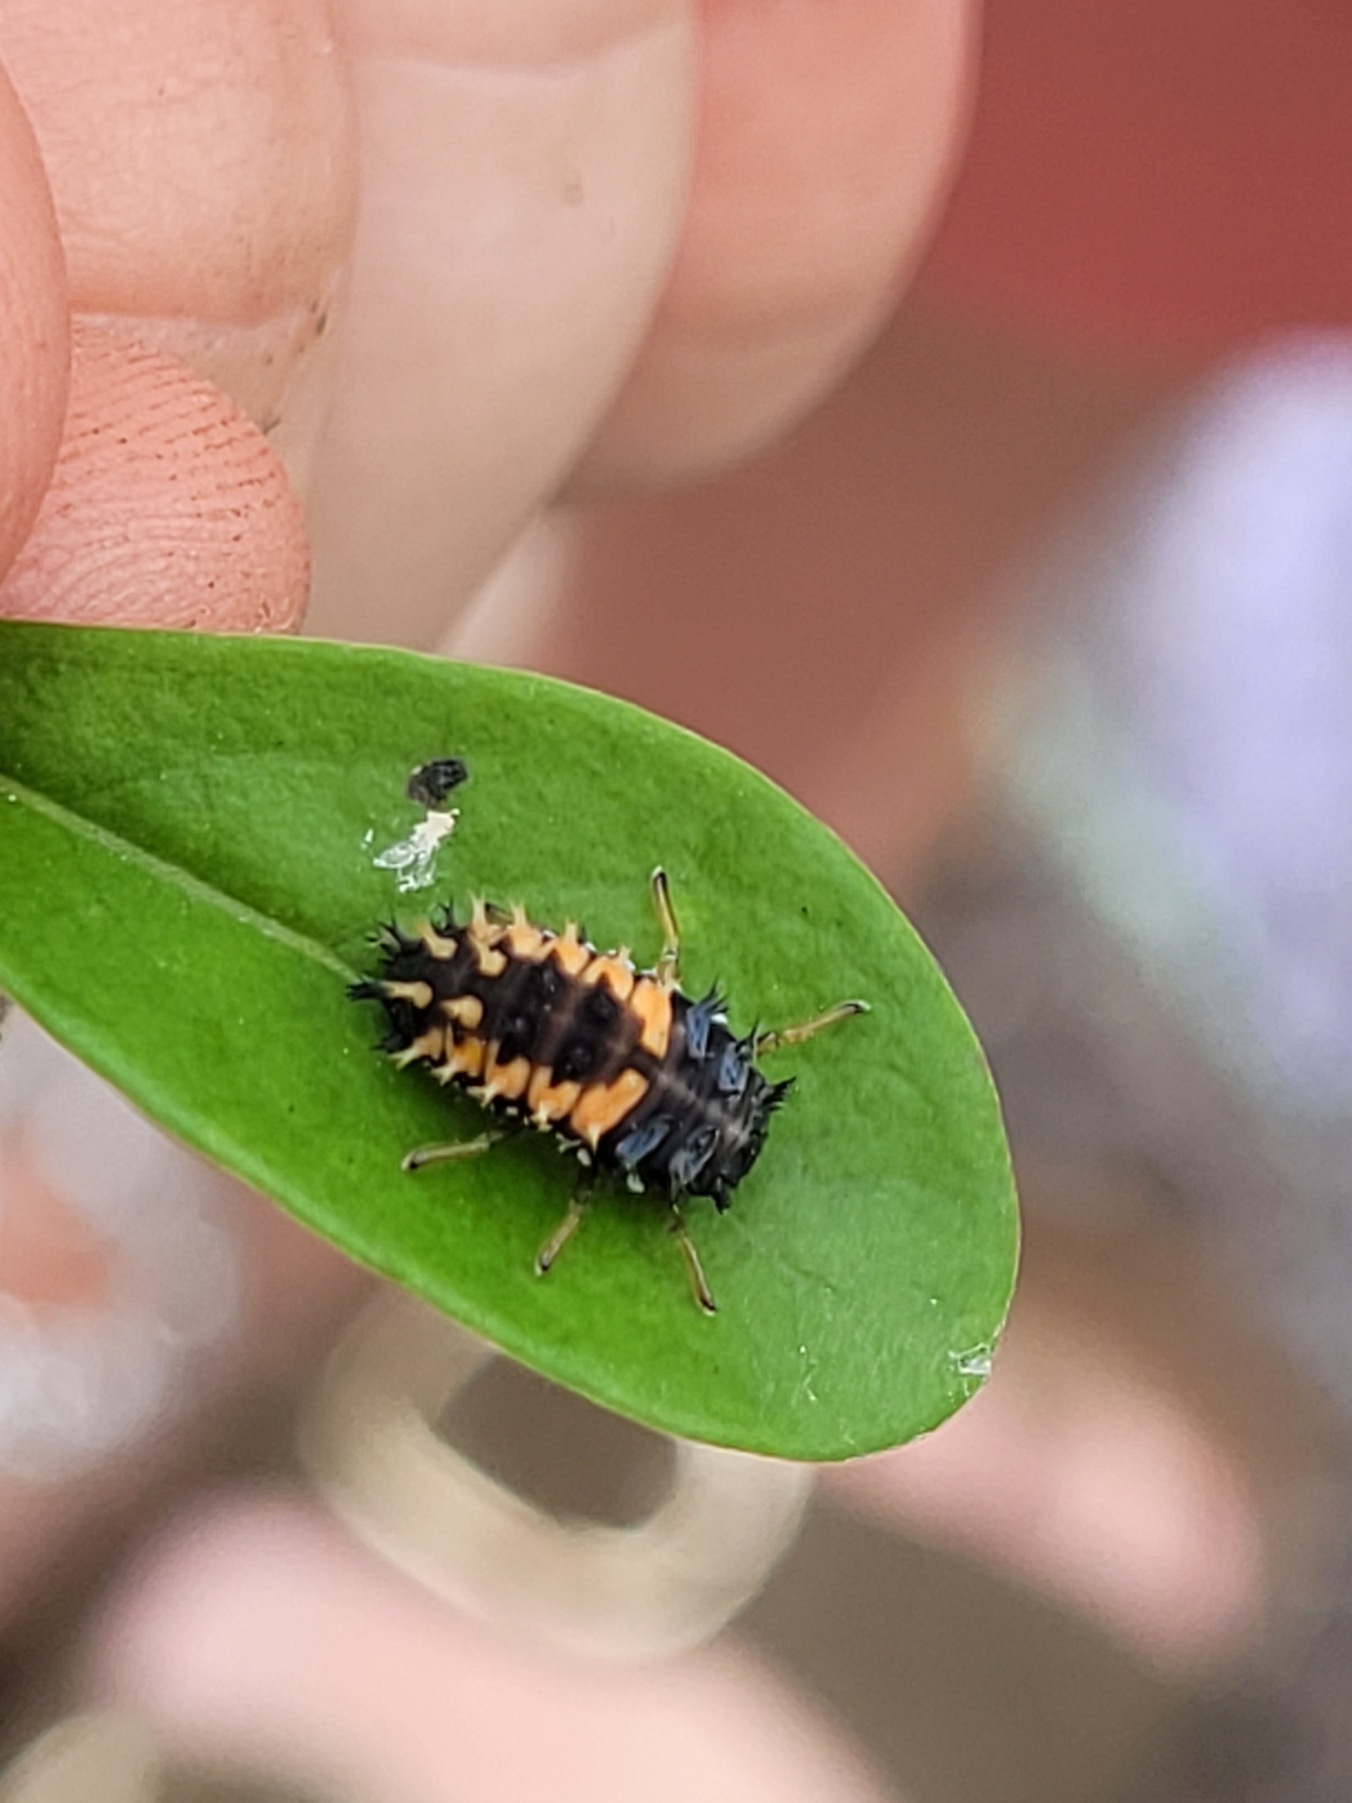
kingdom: Animalia
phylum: Arthropoda
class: Insecta
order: Coleoptera
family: Coccinellidae
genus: Harmonia
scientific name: Harmonia axyridis
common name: Harlekinmariehøne
